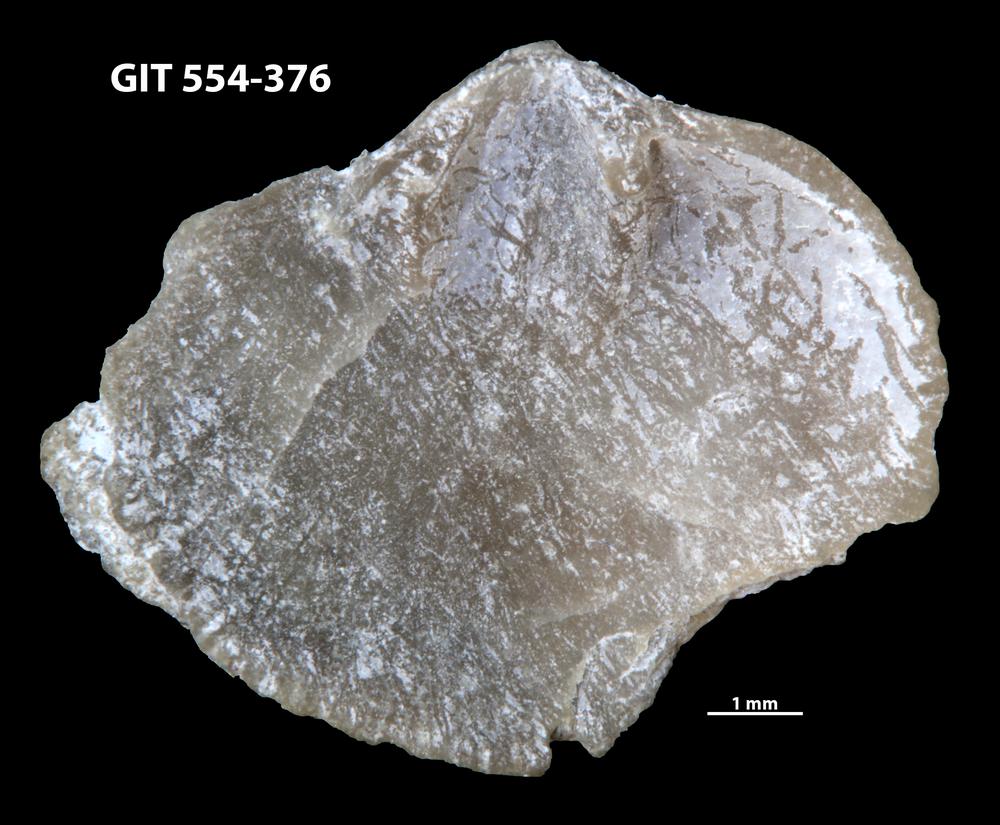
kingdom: Animalia
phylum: Brachiopoda
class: Rhynchonellata
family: Dalmanellidae
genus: Isorthis
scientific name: Isorthis Onniella mediocra
